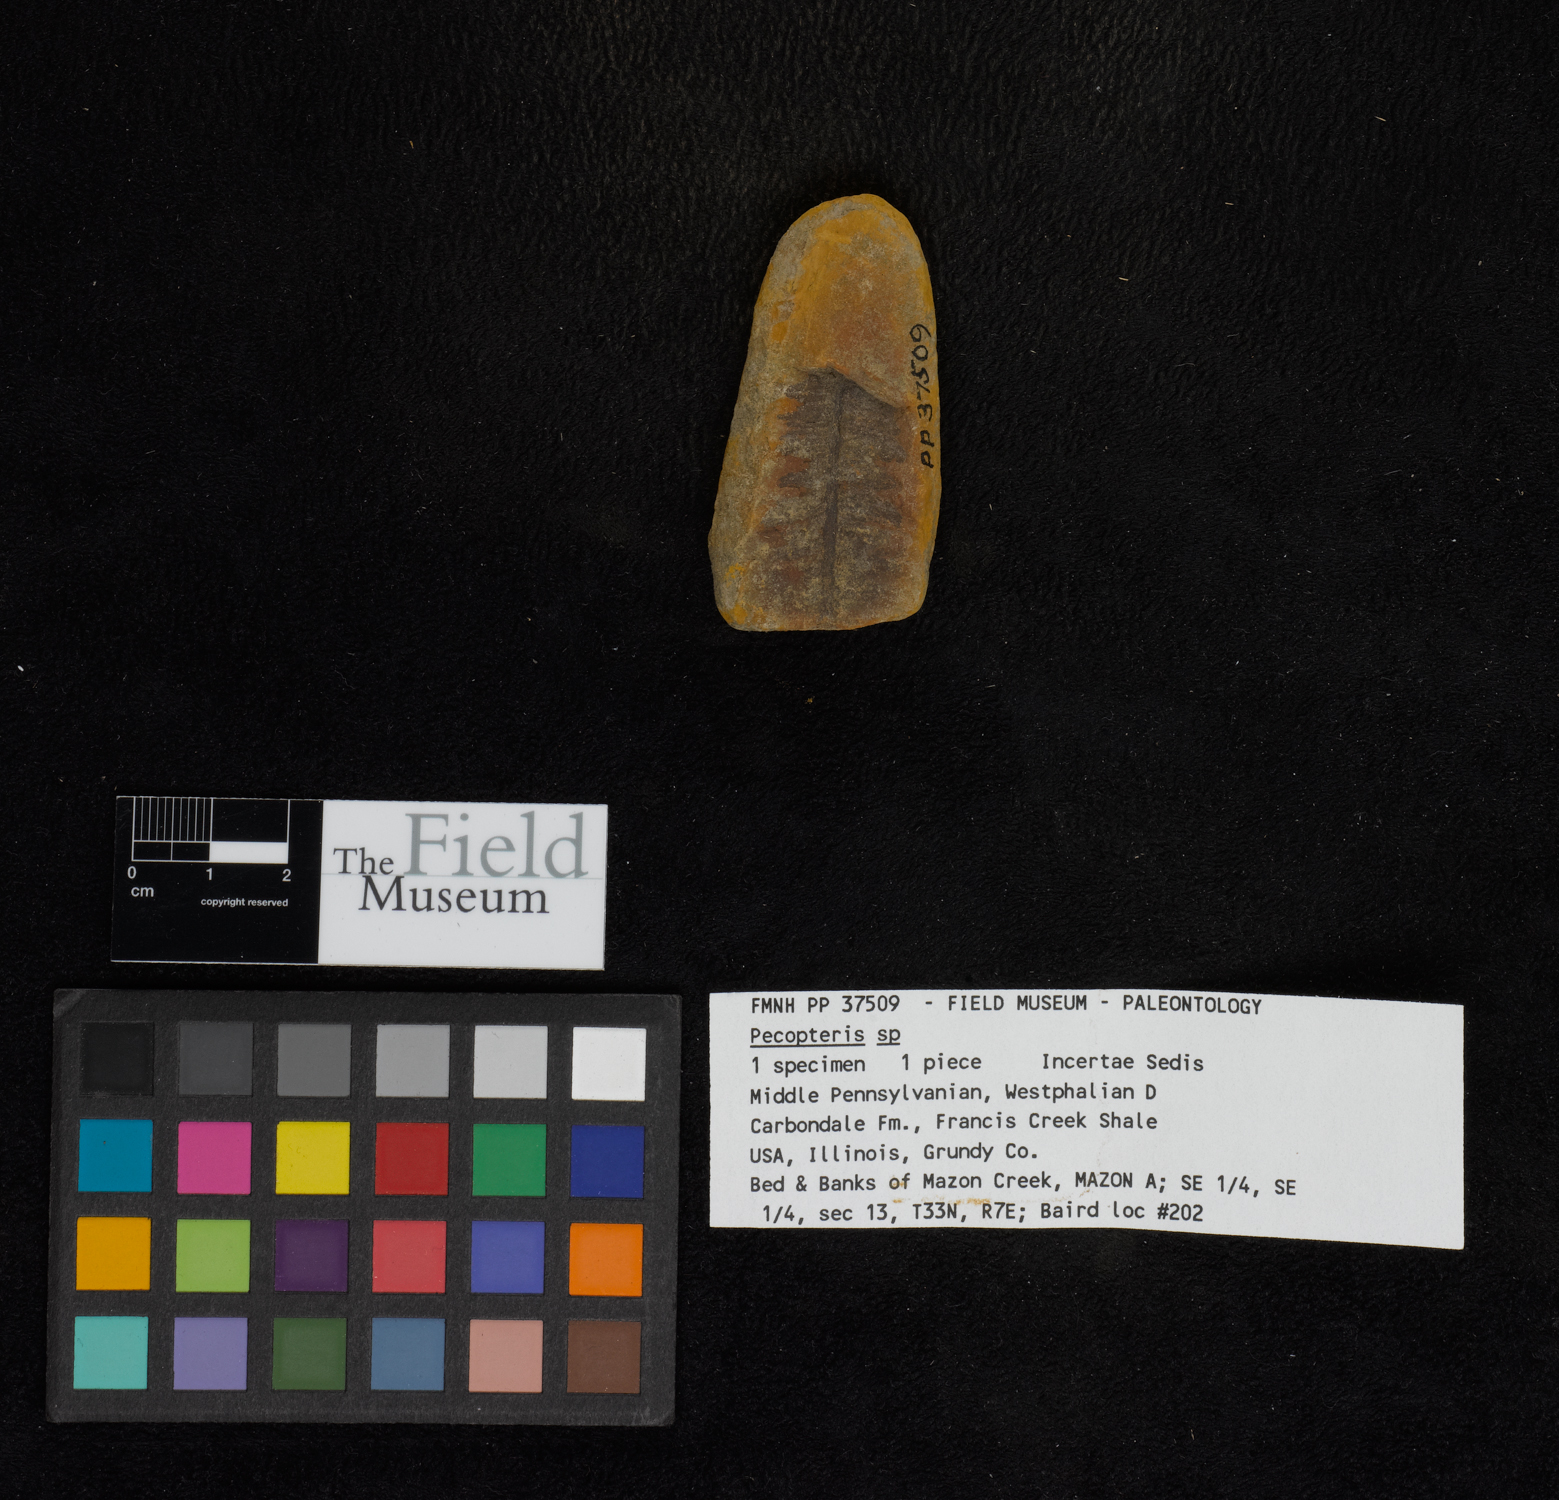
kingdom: Plantae
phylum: Tracheophyta
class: Polypodiopsida
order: Marattiales
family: Asterothecaceae
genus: Pecopteris
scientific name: Pecopteris
